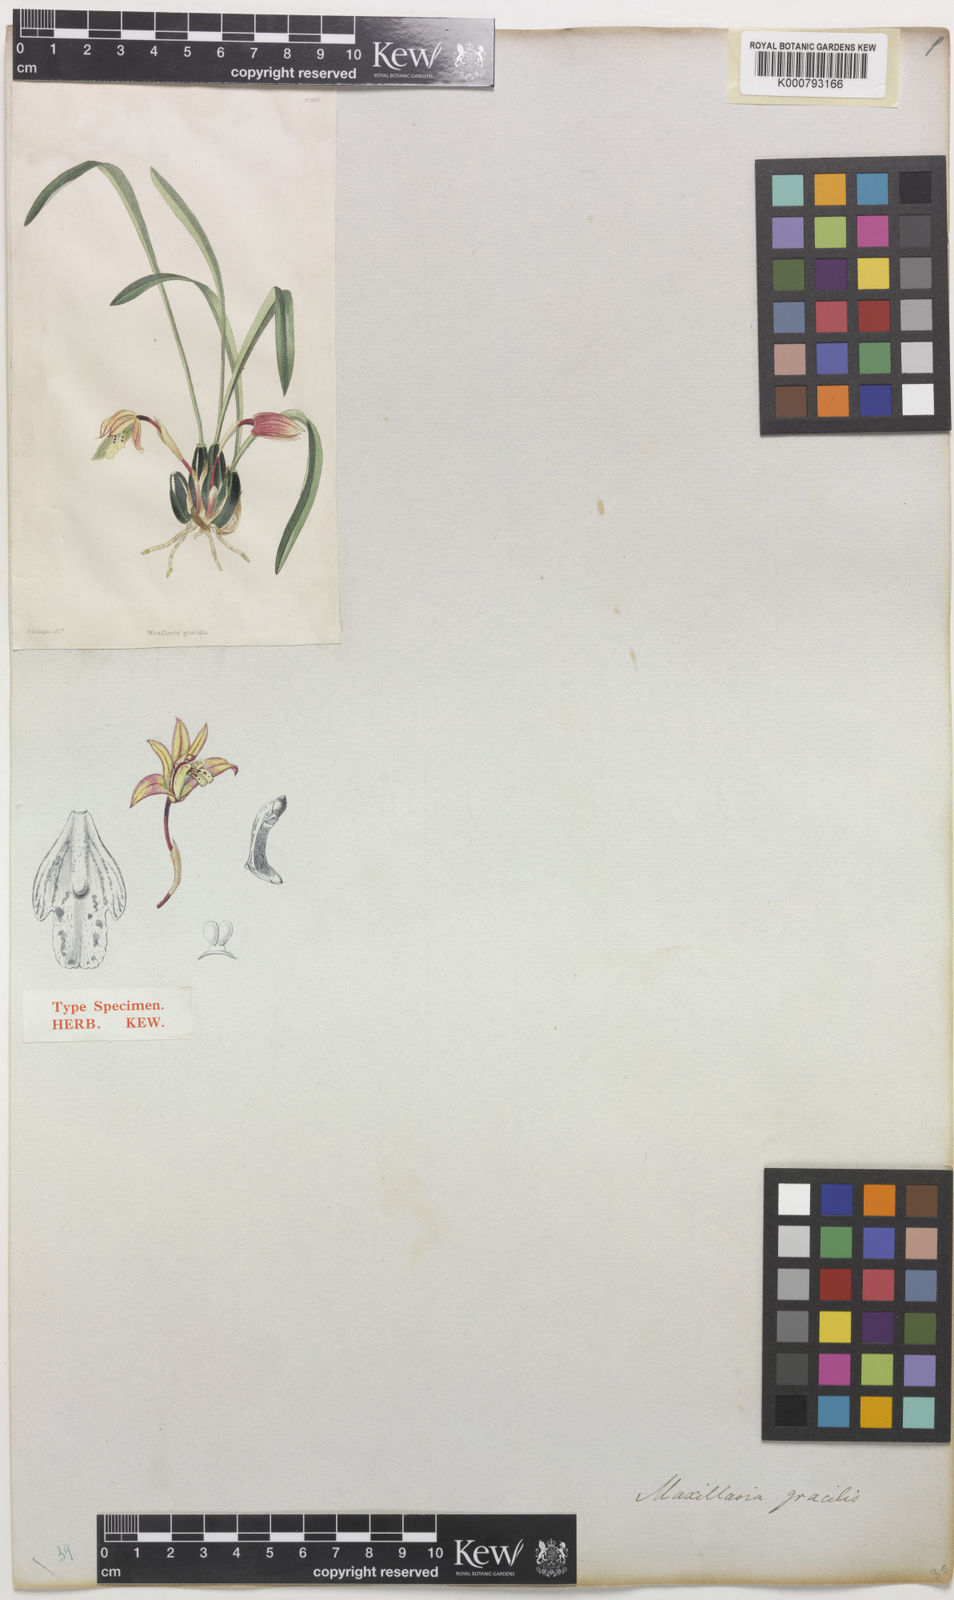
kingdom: Plantae
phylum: Tracheophyta
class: Liliopsida
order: Asparagales
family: Orchidaceae
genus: Maxillaria
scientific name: Maxillaria
